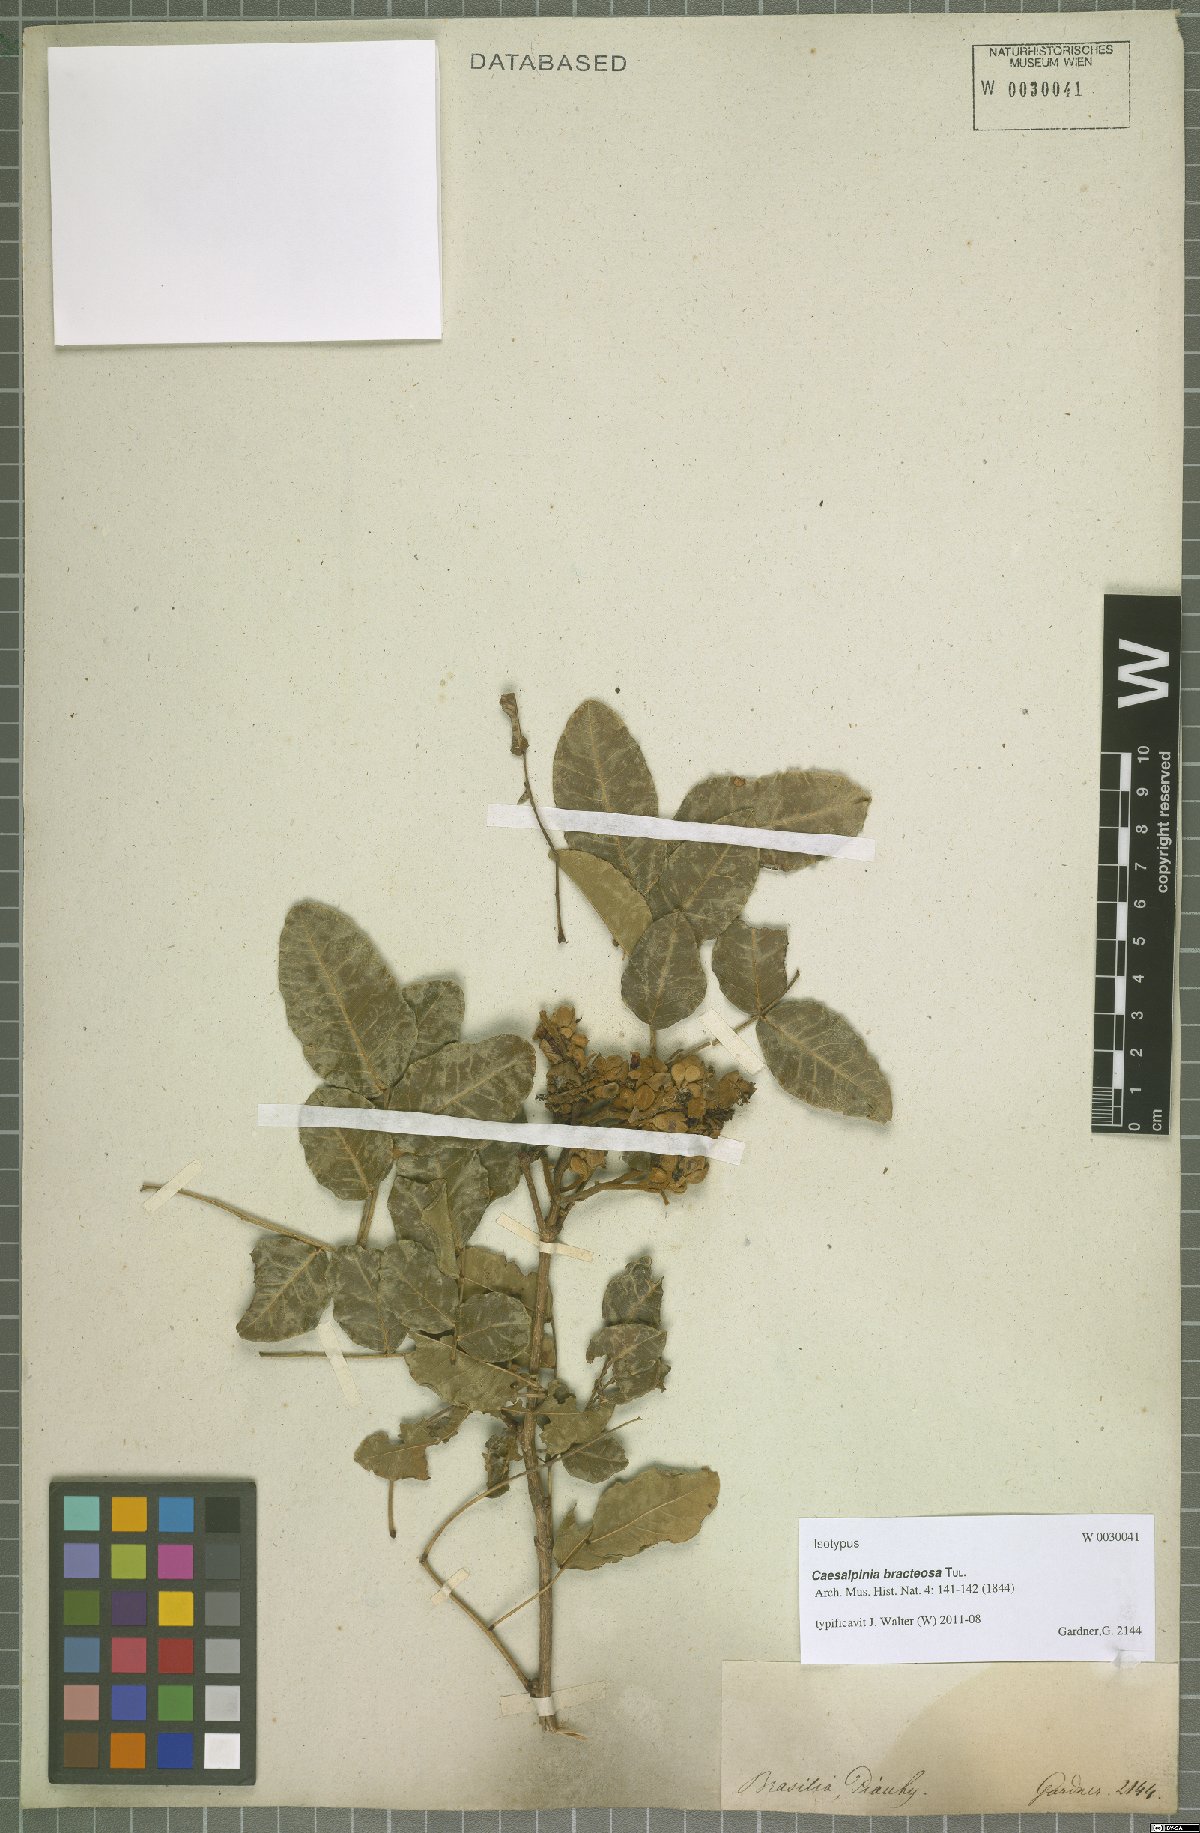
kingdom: Plantae
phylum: Tracheophyta
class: Magnoliopsida
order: Fabales
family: Fabaceae
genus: Cenostigma
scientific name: Cenostigma bracteosum
